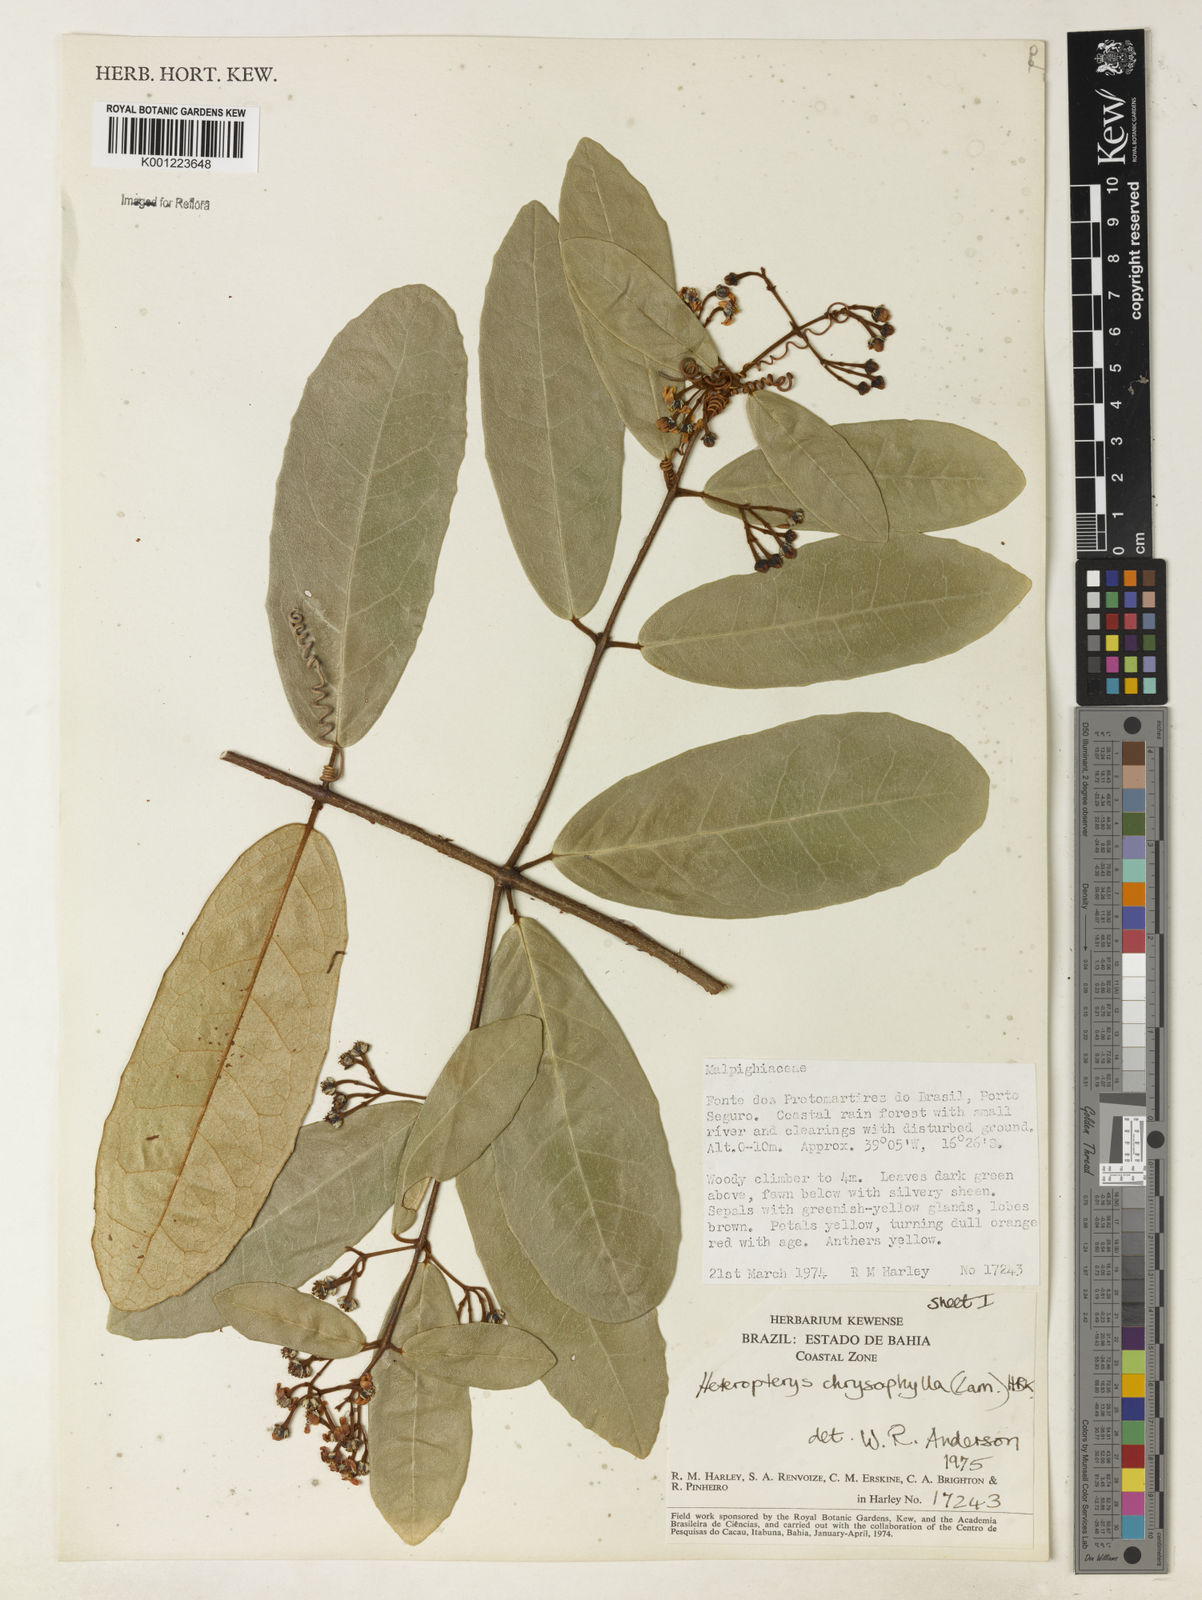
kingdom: Plantae
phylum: Tracheophyta
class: Magnoliopsida
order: Malpighiales
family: Malpighiaceae
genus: Heteropterys
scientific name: Heteropterys chrysophylla
